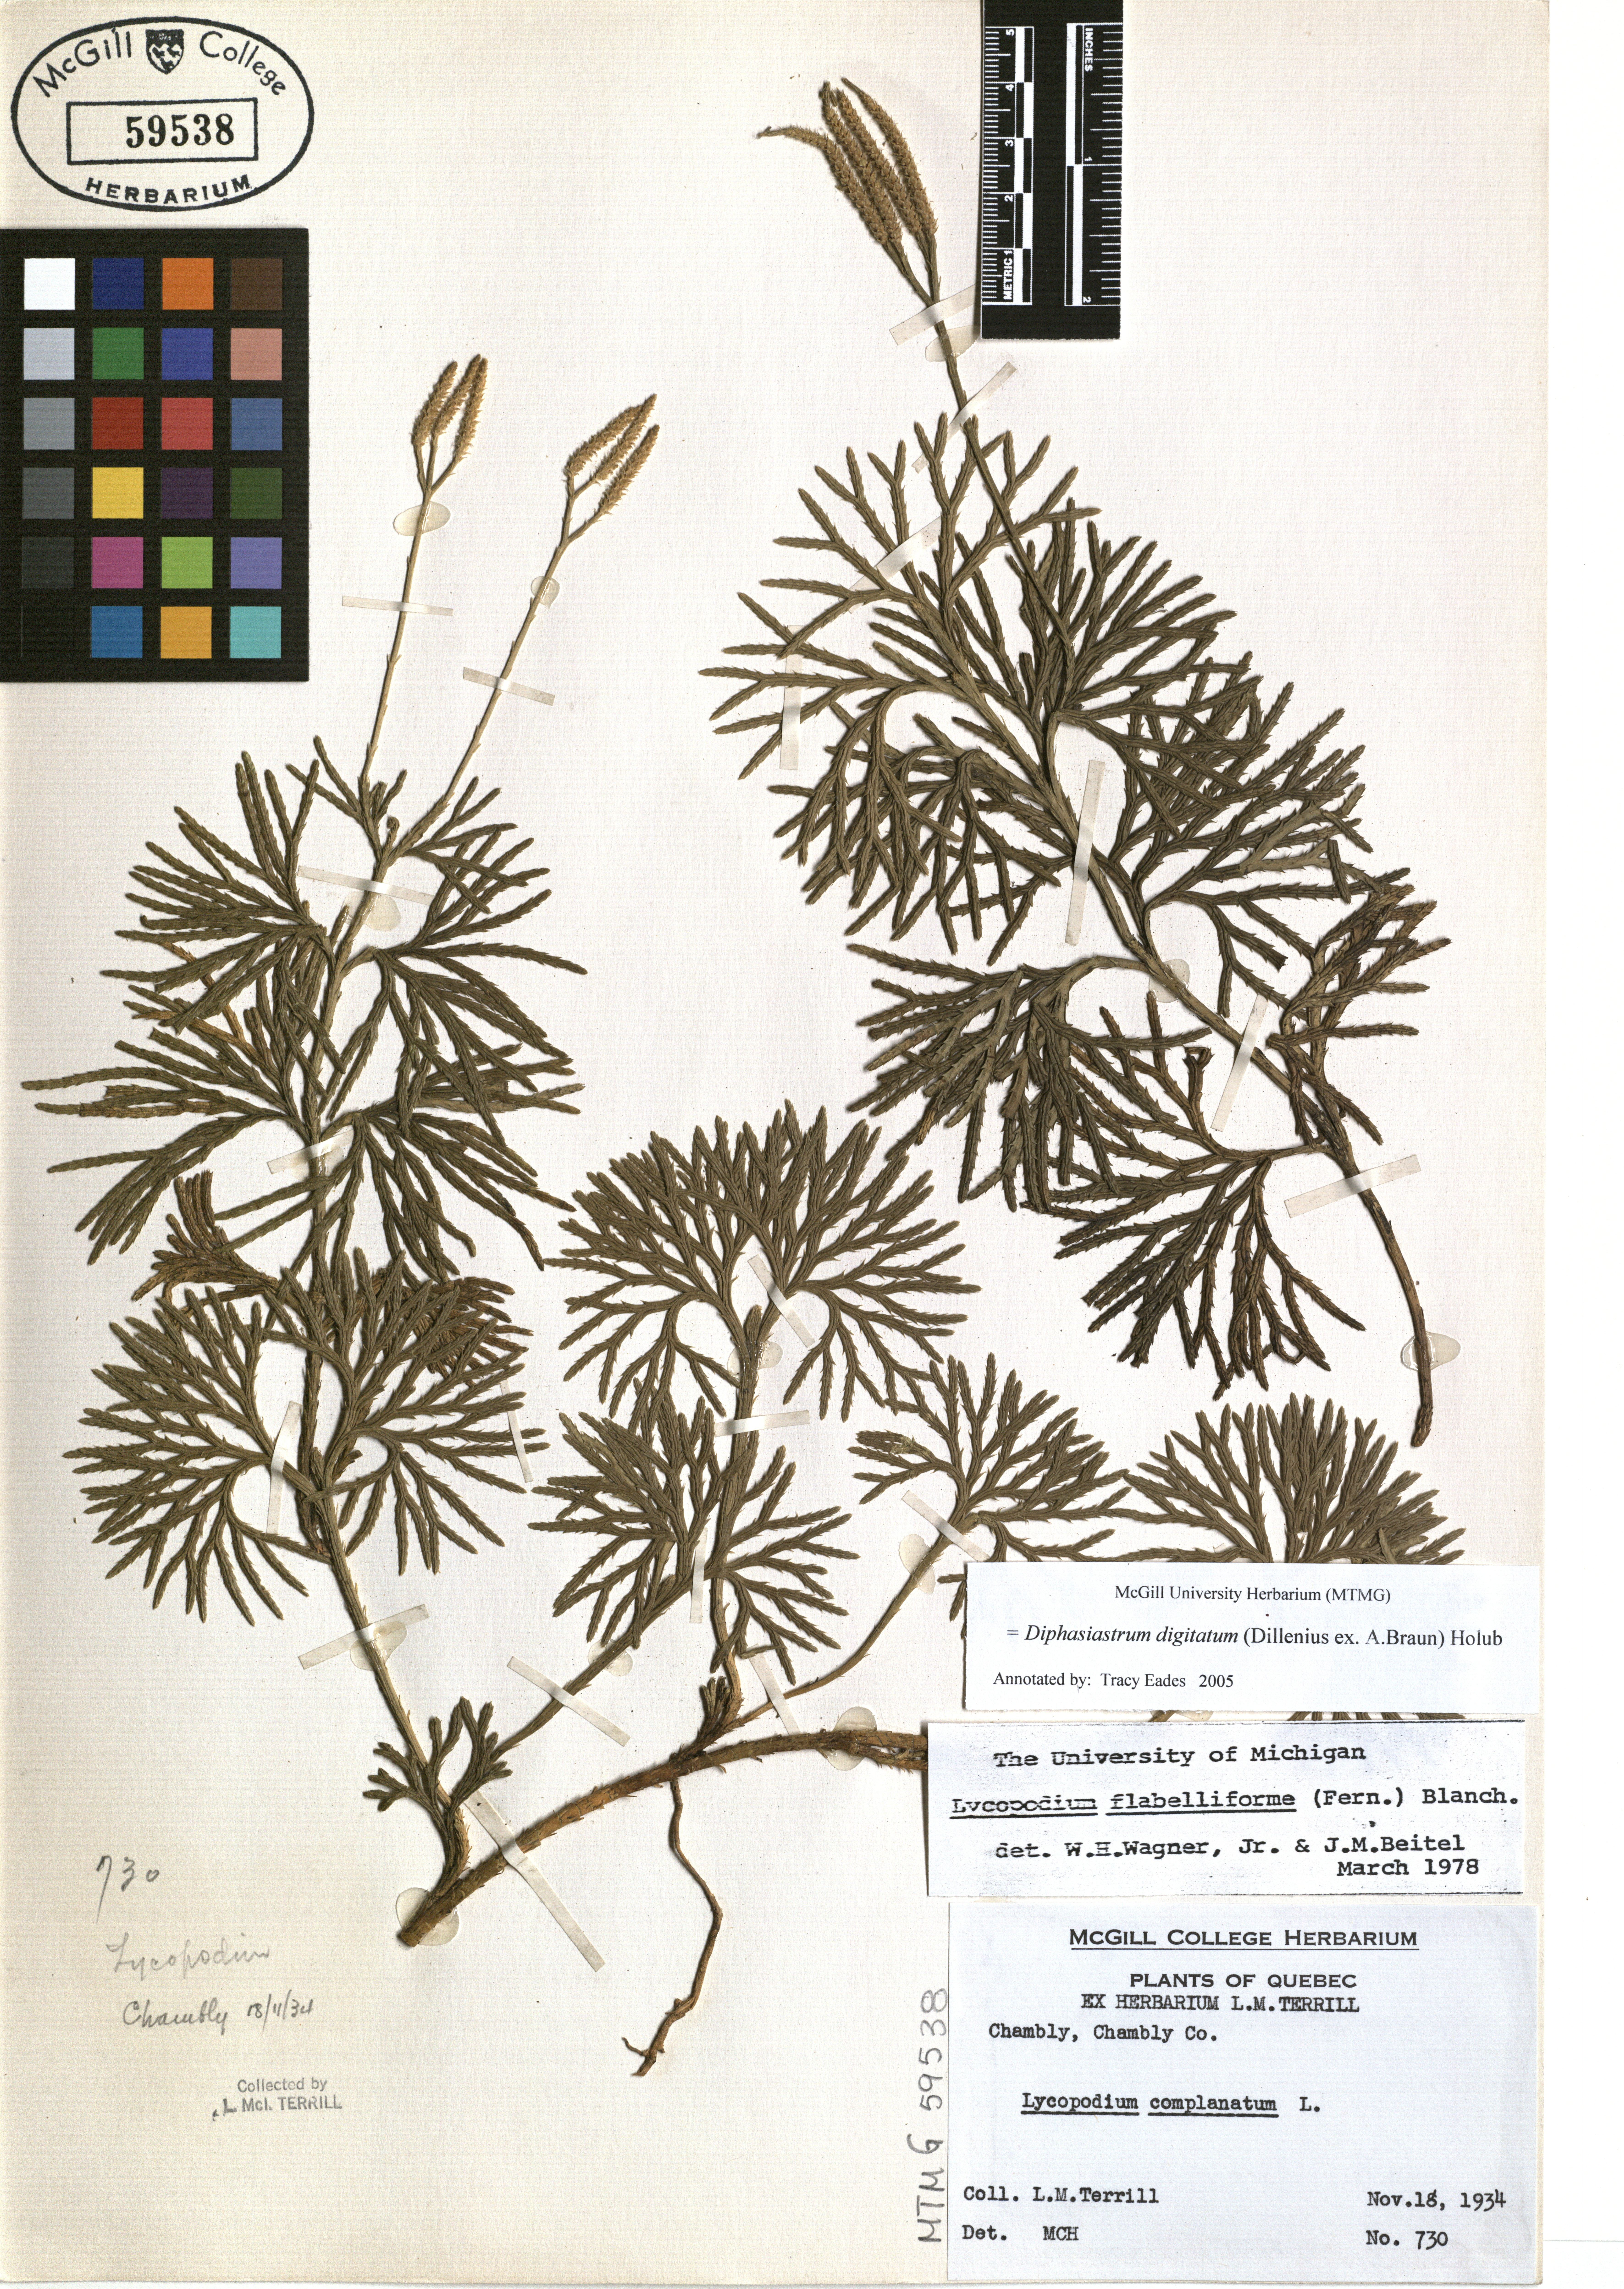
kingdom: Plantae
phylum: Tracheophyta
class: Lycopodiopsida
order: Lycopodiales
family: Lycopodiaceae
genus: Diphasiastrum
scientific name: Diphasiastrum digitatum
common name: Southern running-pine
